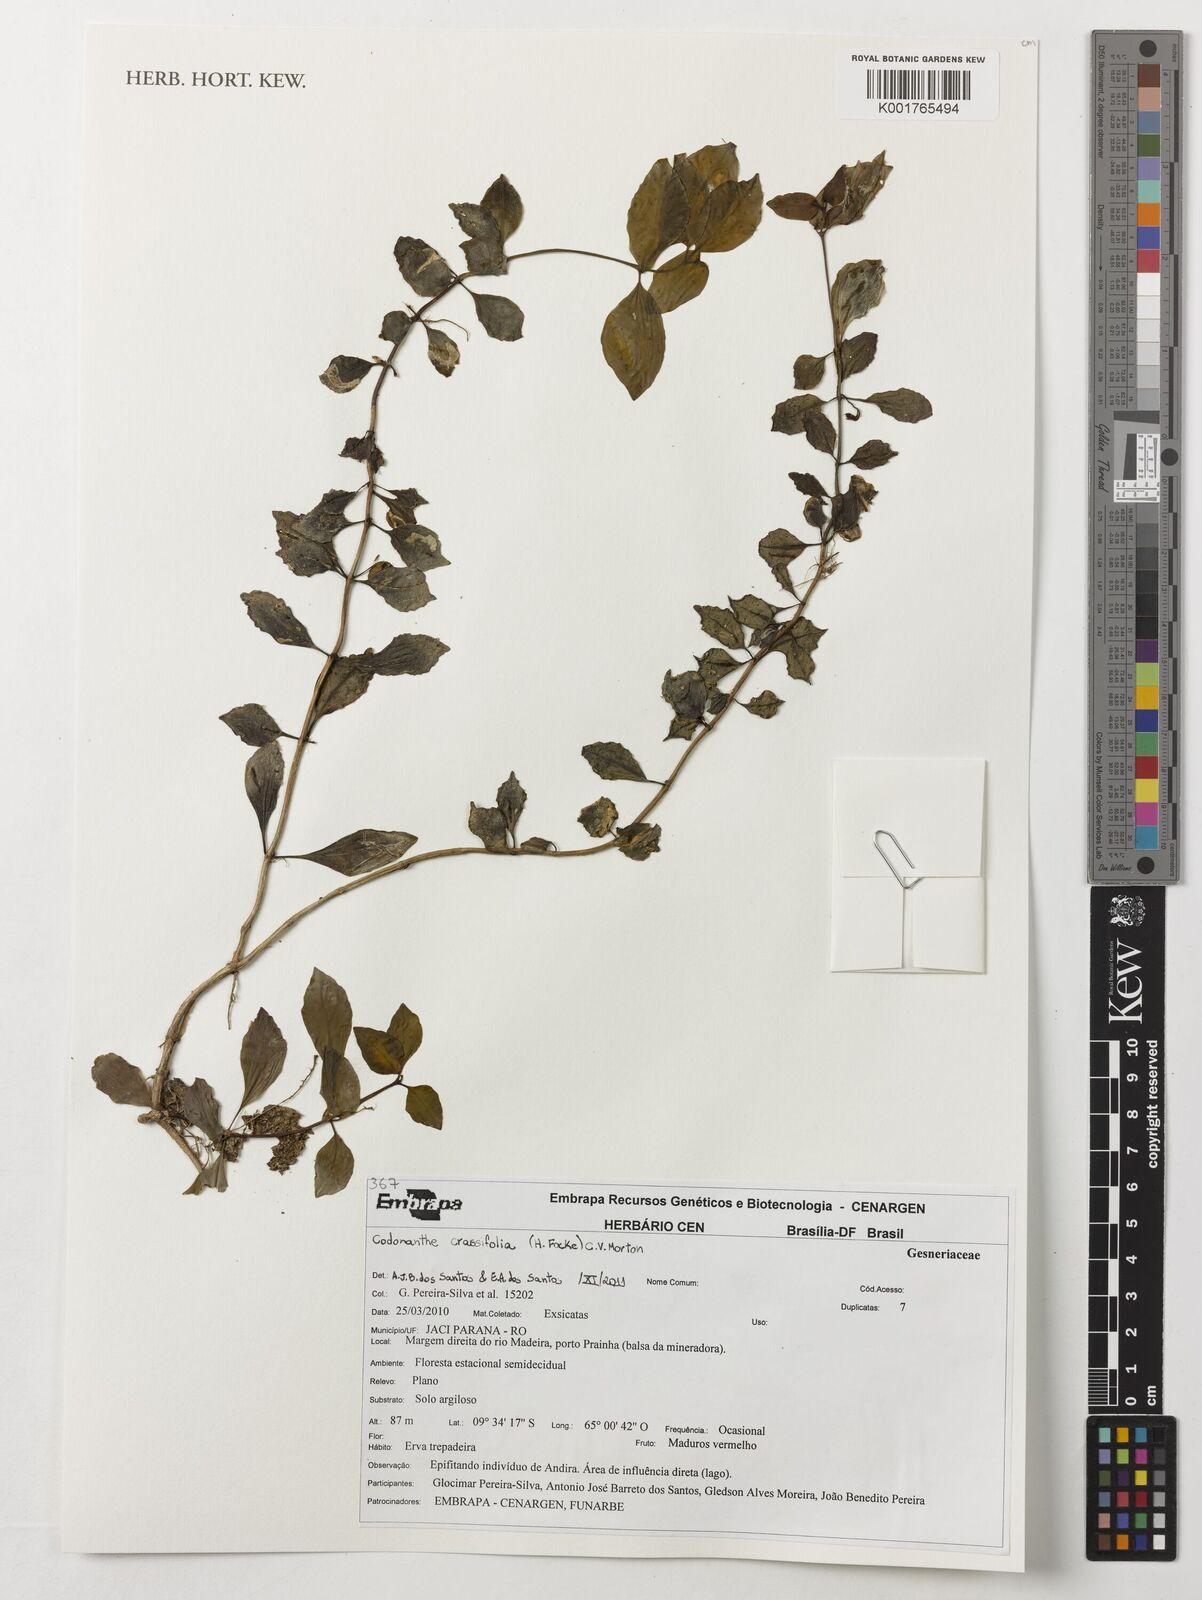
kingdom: Plantae
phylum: Tracheophyta
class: Magnoliopsida
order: Lamiales
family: Gesneriaceae
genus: Codonanthopsis
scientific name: Codonanthopsis crassifolia
